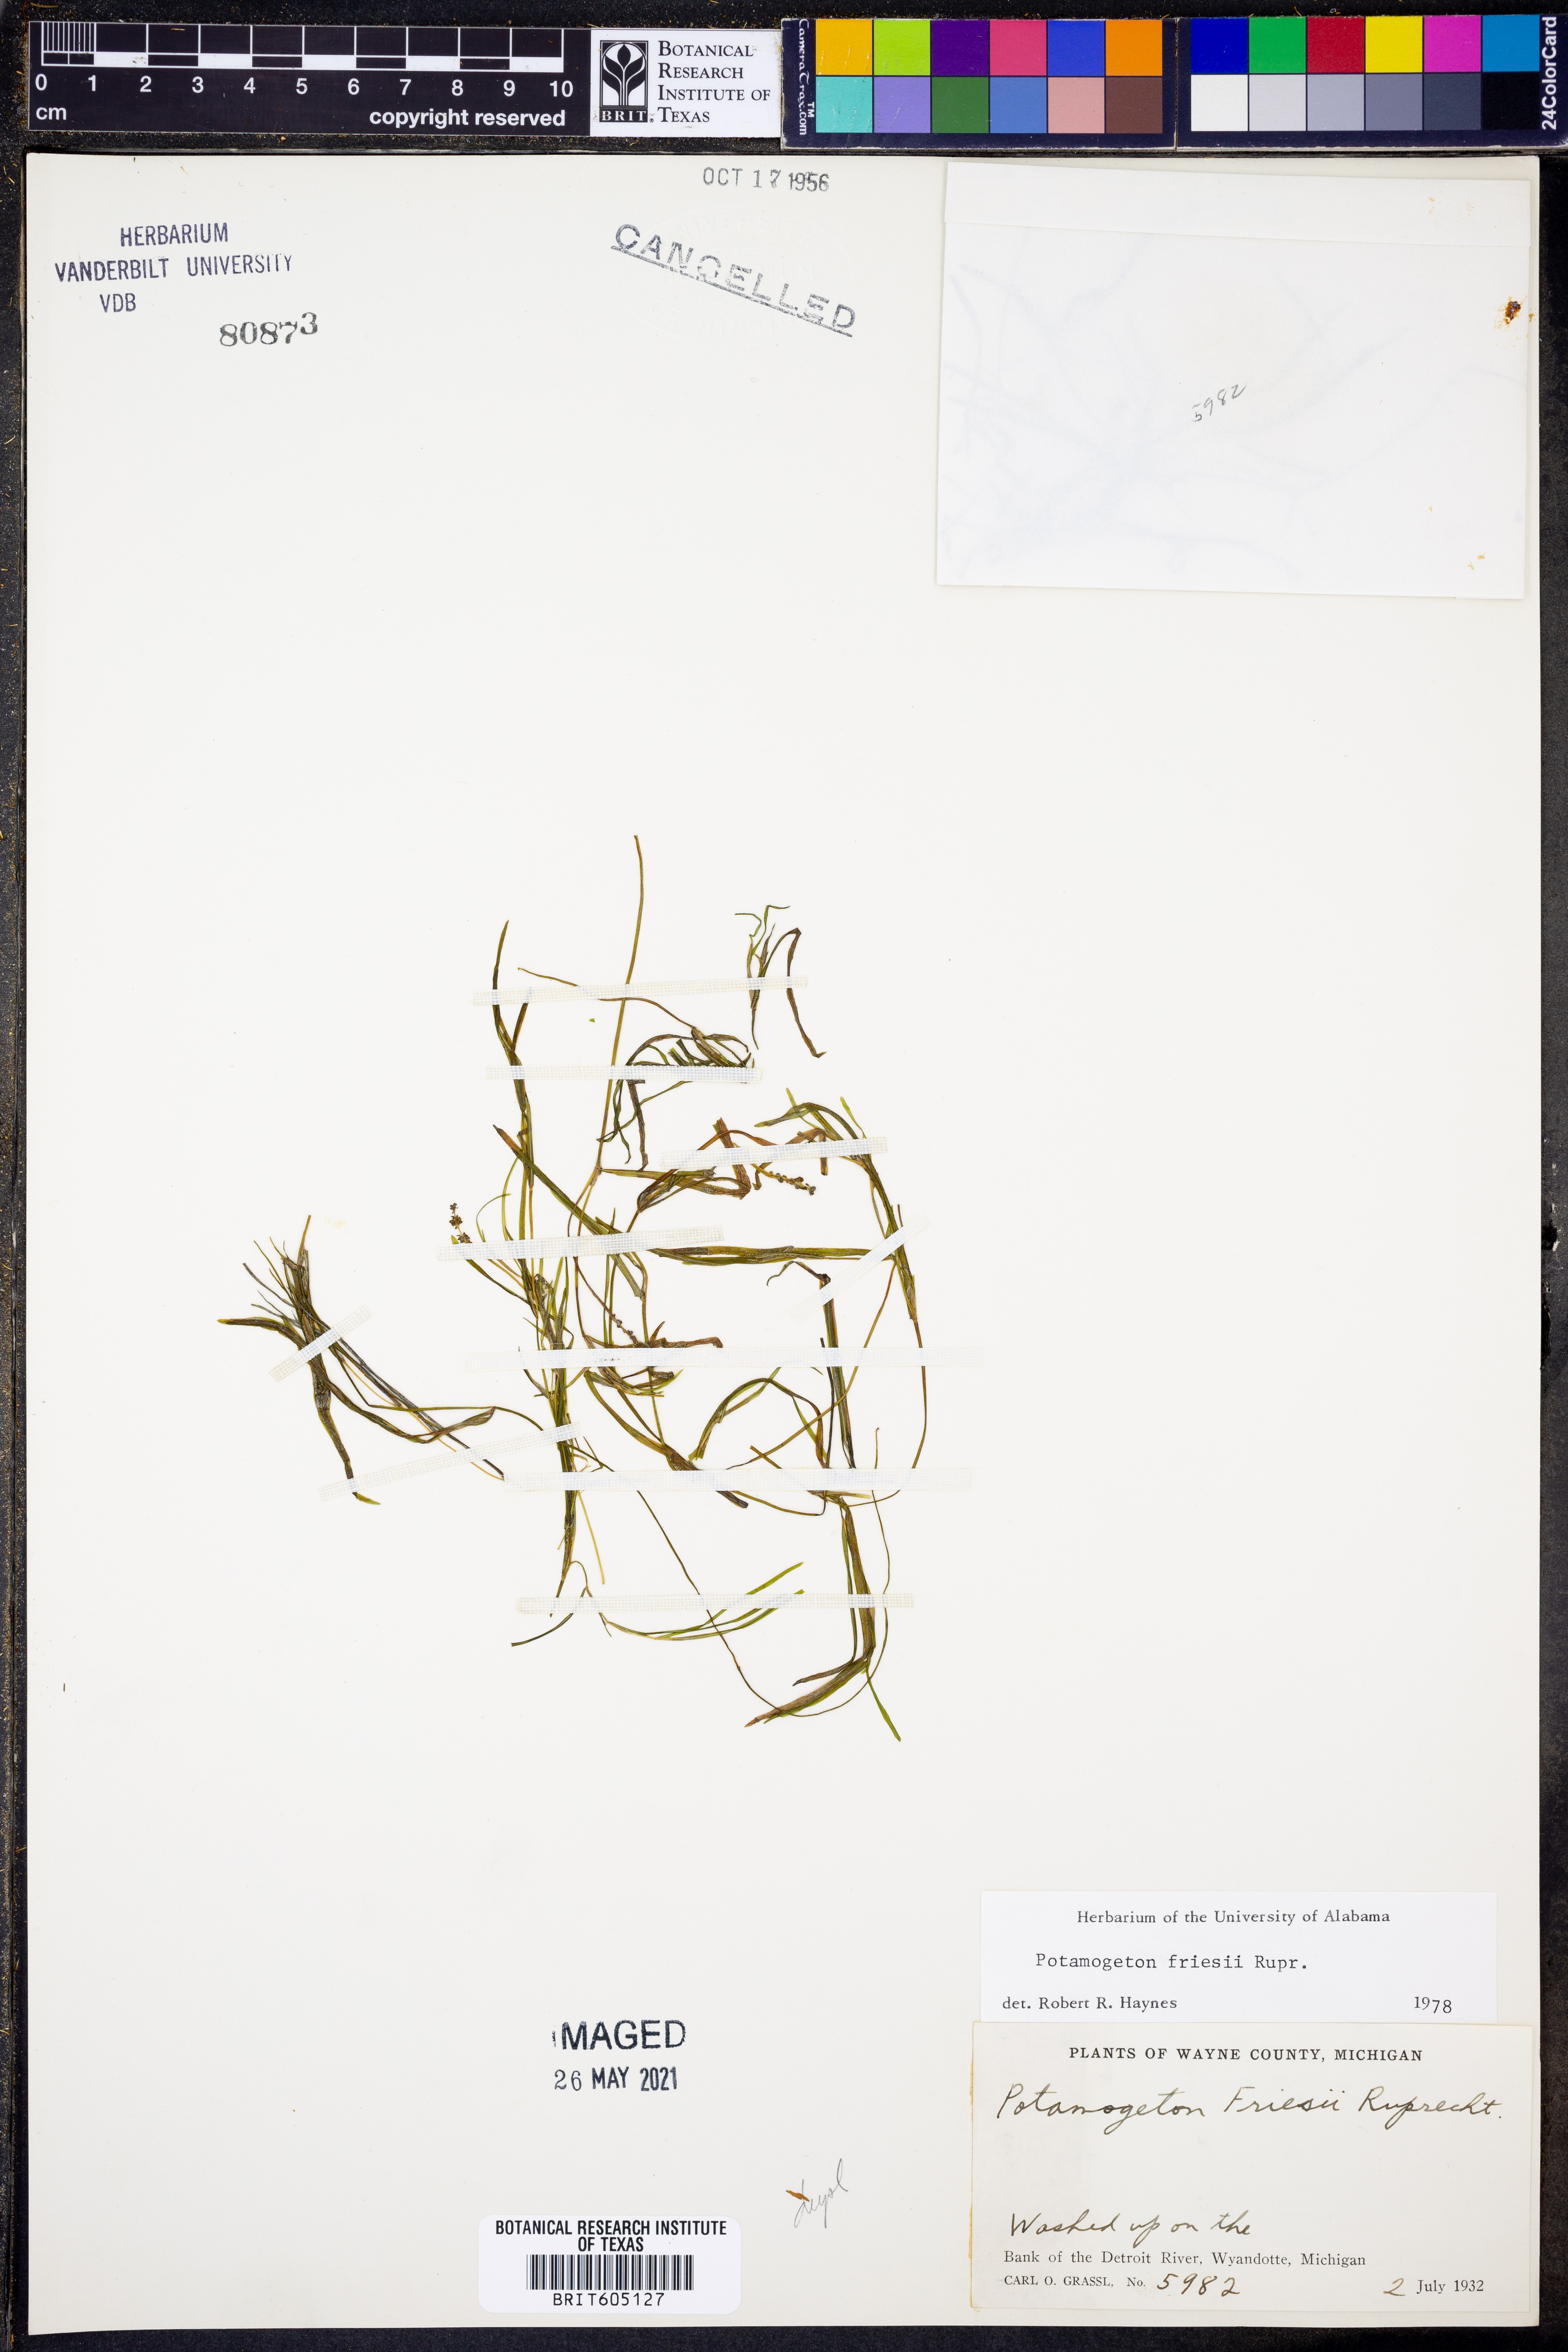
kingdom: Plantae
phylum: Tracheophyta
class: Liliopsida
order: Alismatales
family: Potamogetonaceae
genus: Potamogeton
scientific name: Potamogeton friesii
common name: Flat-stalked pondweed
